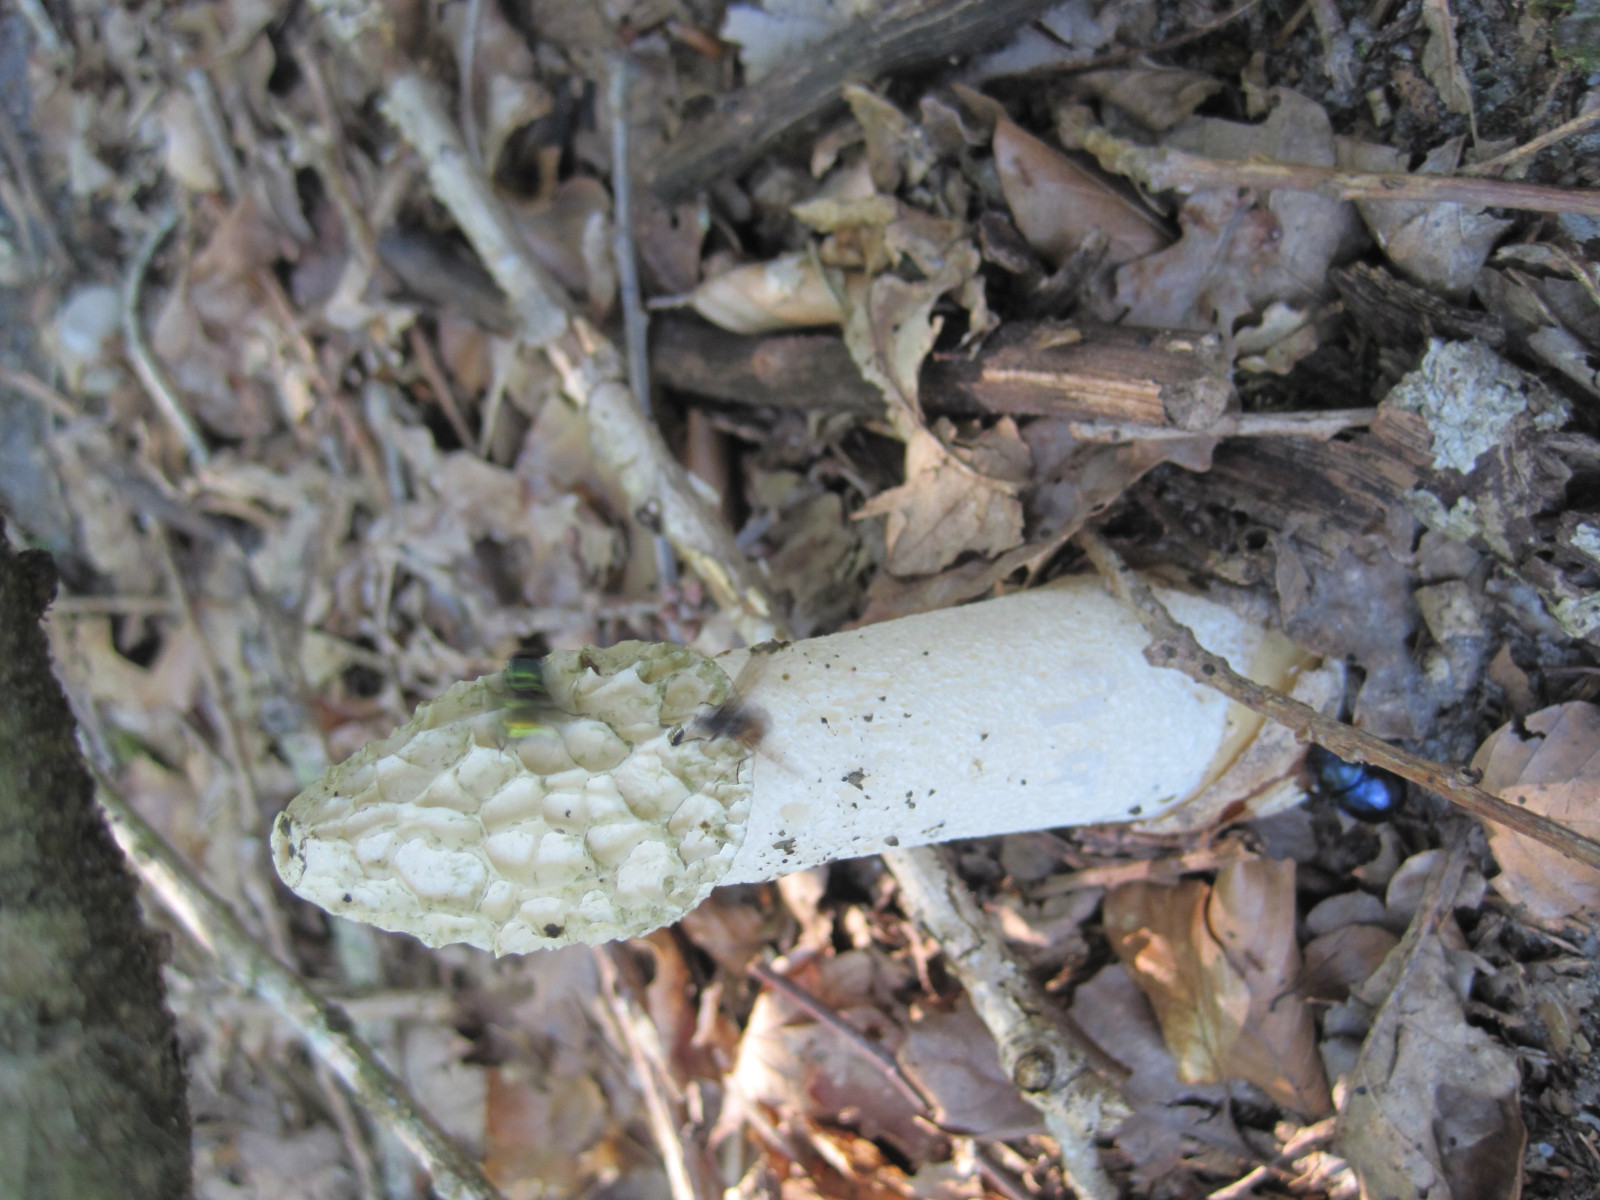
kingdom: Fungi
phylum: Basidiomycota
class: Agaricomycetes
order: Phallales
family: Phallaceae
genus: Phallus
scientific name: Phallus impudicus
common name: almindelig stinksvamp
